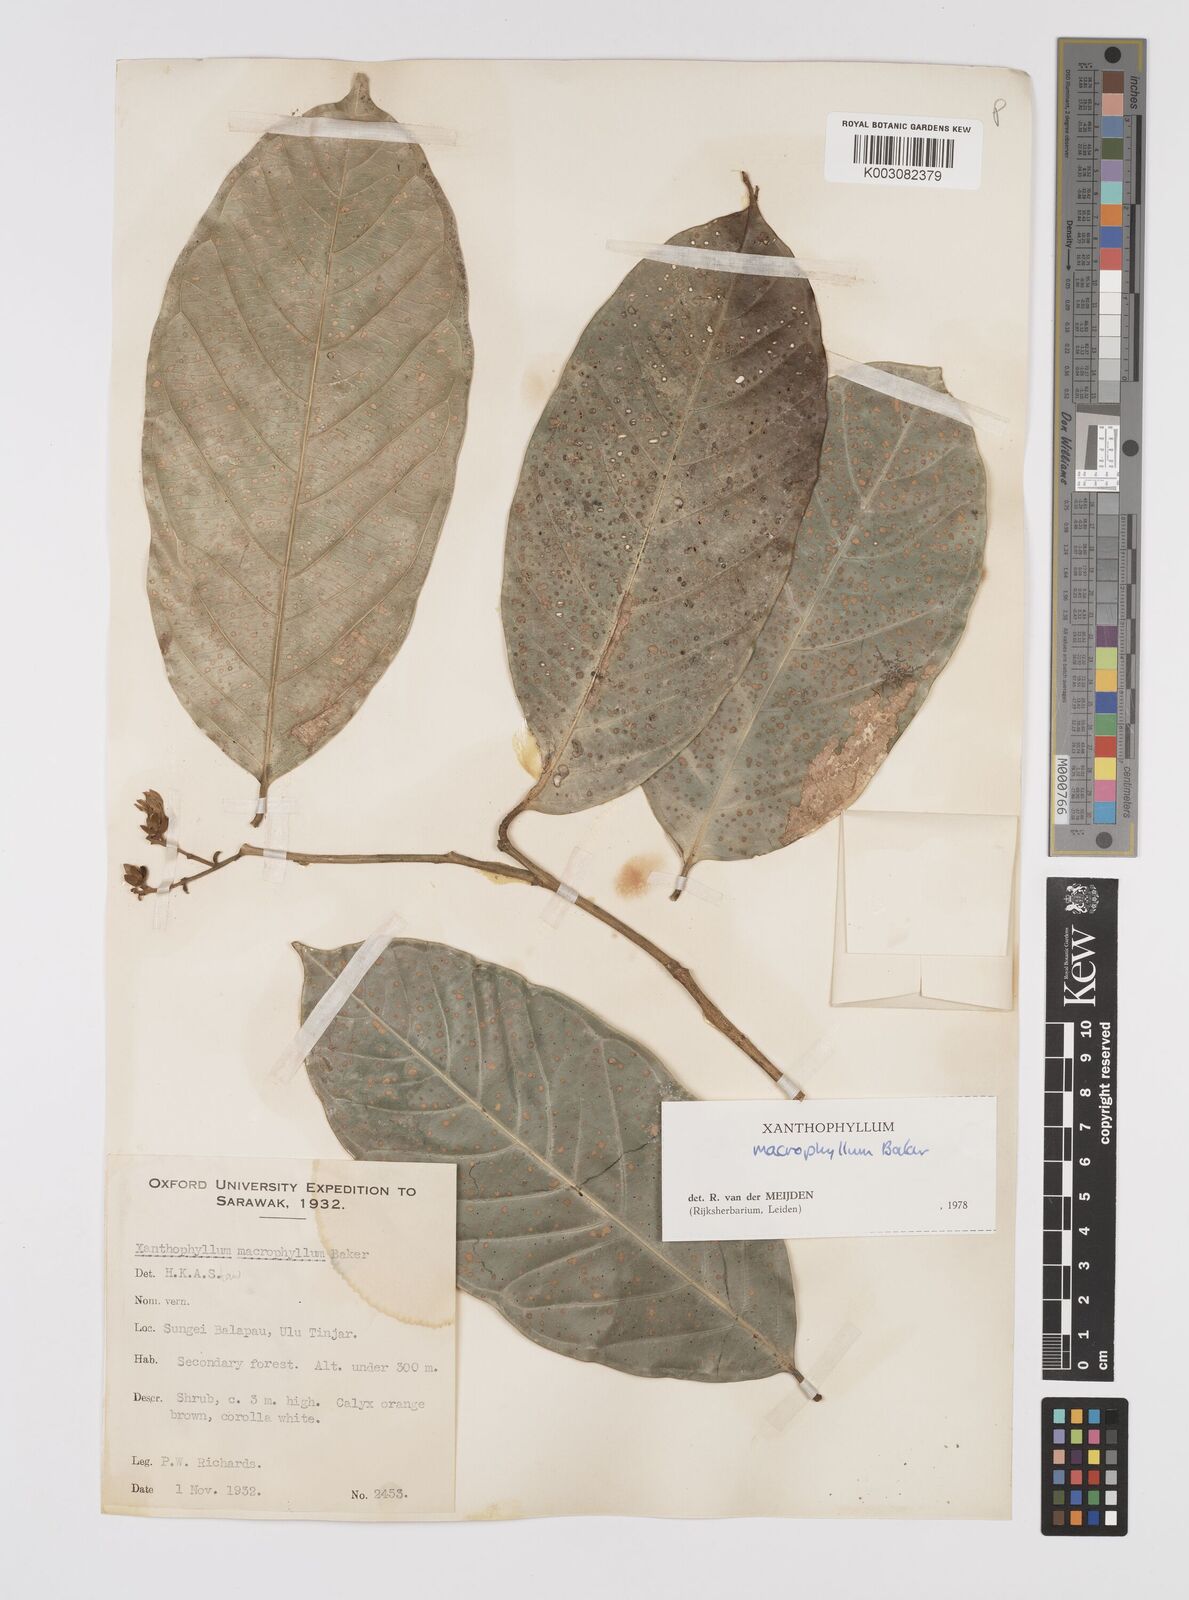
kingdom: Plantae
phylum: Tracheophyta
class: Magnoliopsida
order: Fabales
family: Polygalaceae
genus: Xanthophyllum
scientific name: Xanthophyllum macrophyllum
